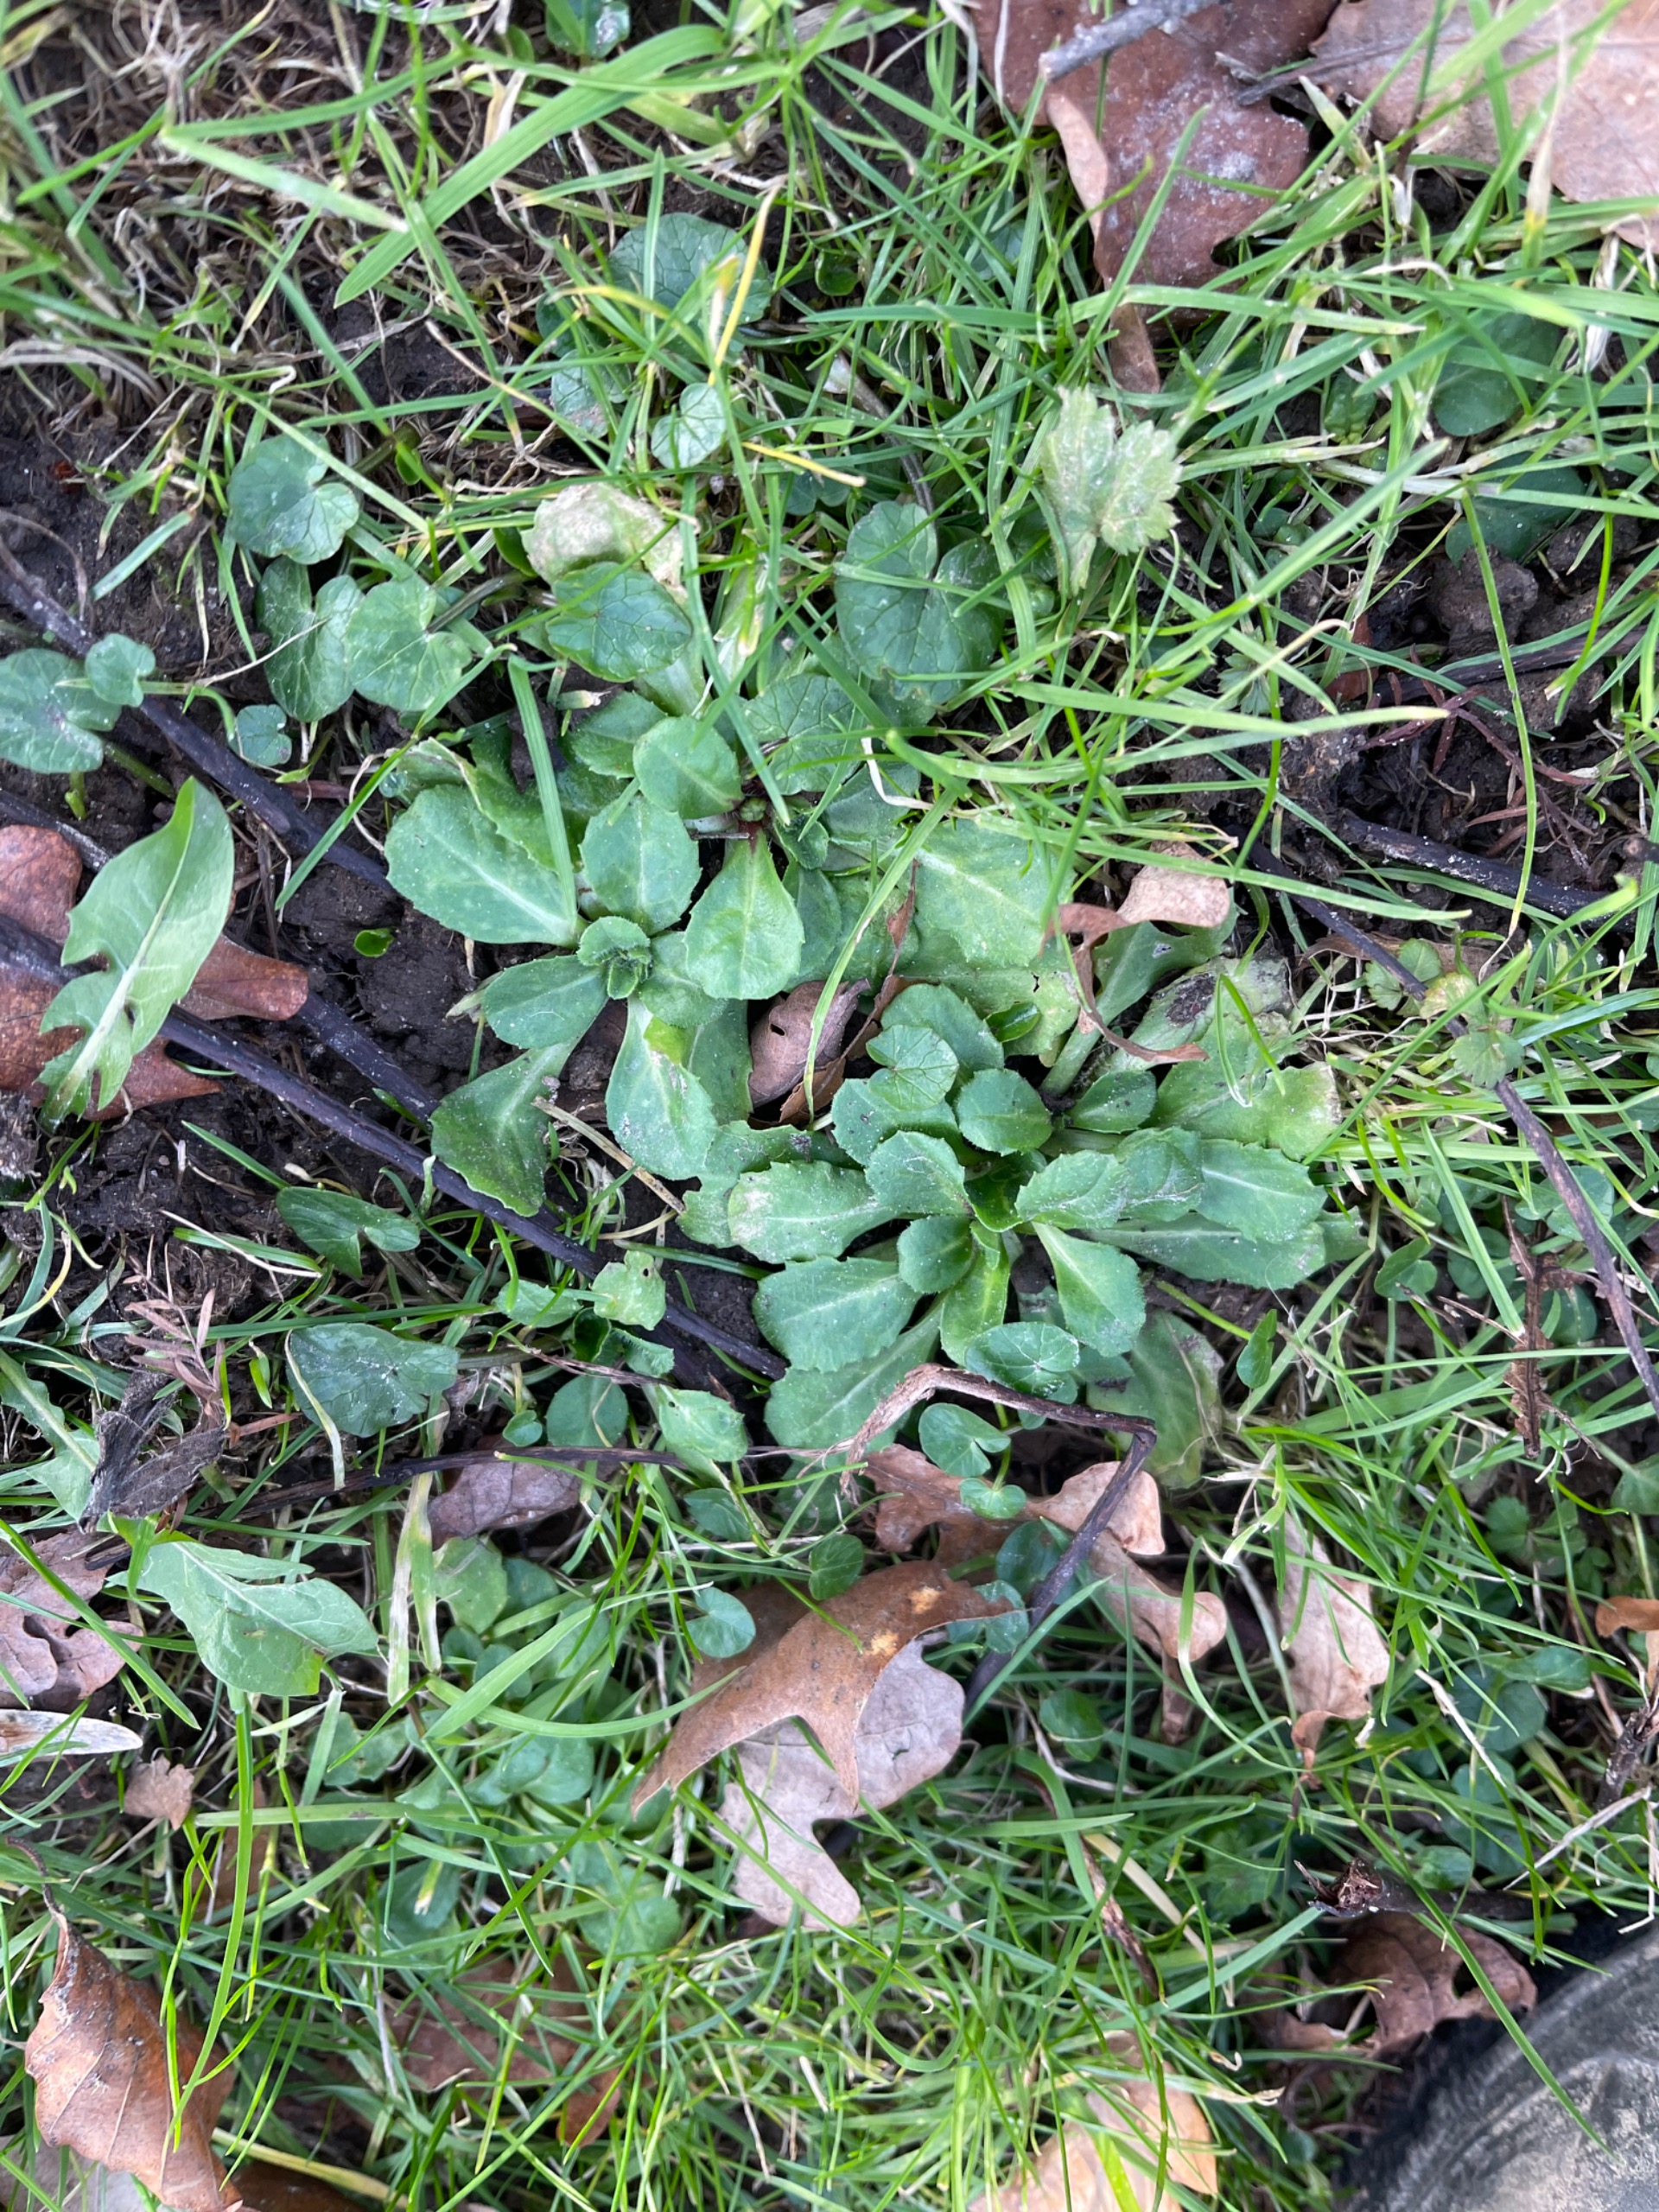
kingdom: Plantae
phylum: Tracheophyta
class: Magnoliopsida
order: Asterales
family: Asteraceae
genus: Bellis
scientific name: Bellis perennis
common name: Tusindfryd
